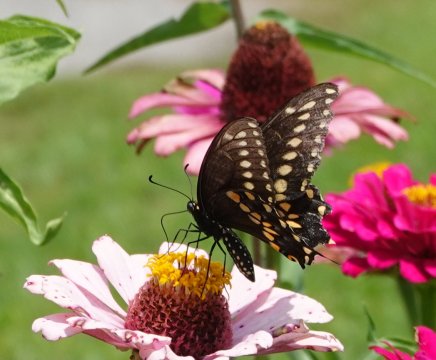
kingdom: Animalia
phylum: Arthropoda
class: Insecta
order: Lepidoptera
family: Papilionidae
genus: Papilio
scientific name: Papilio polyxenes
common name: Black Swallowtail
